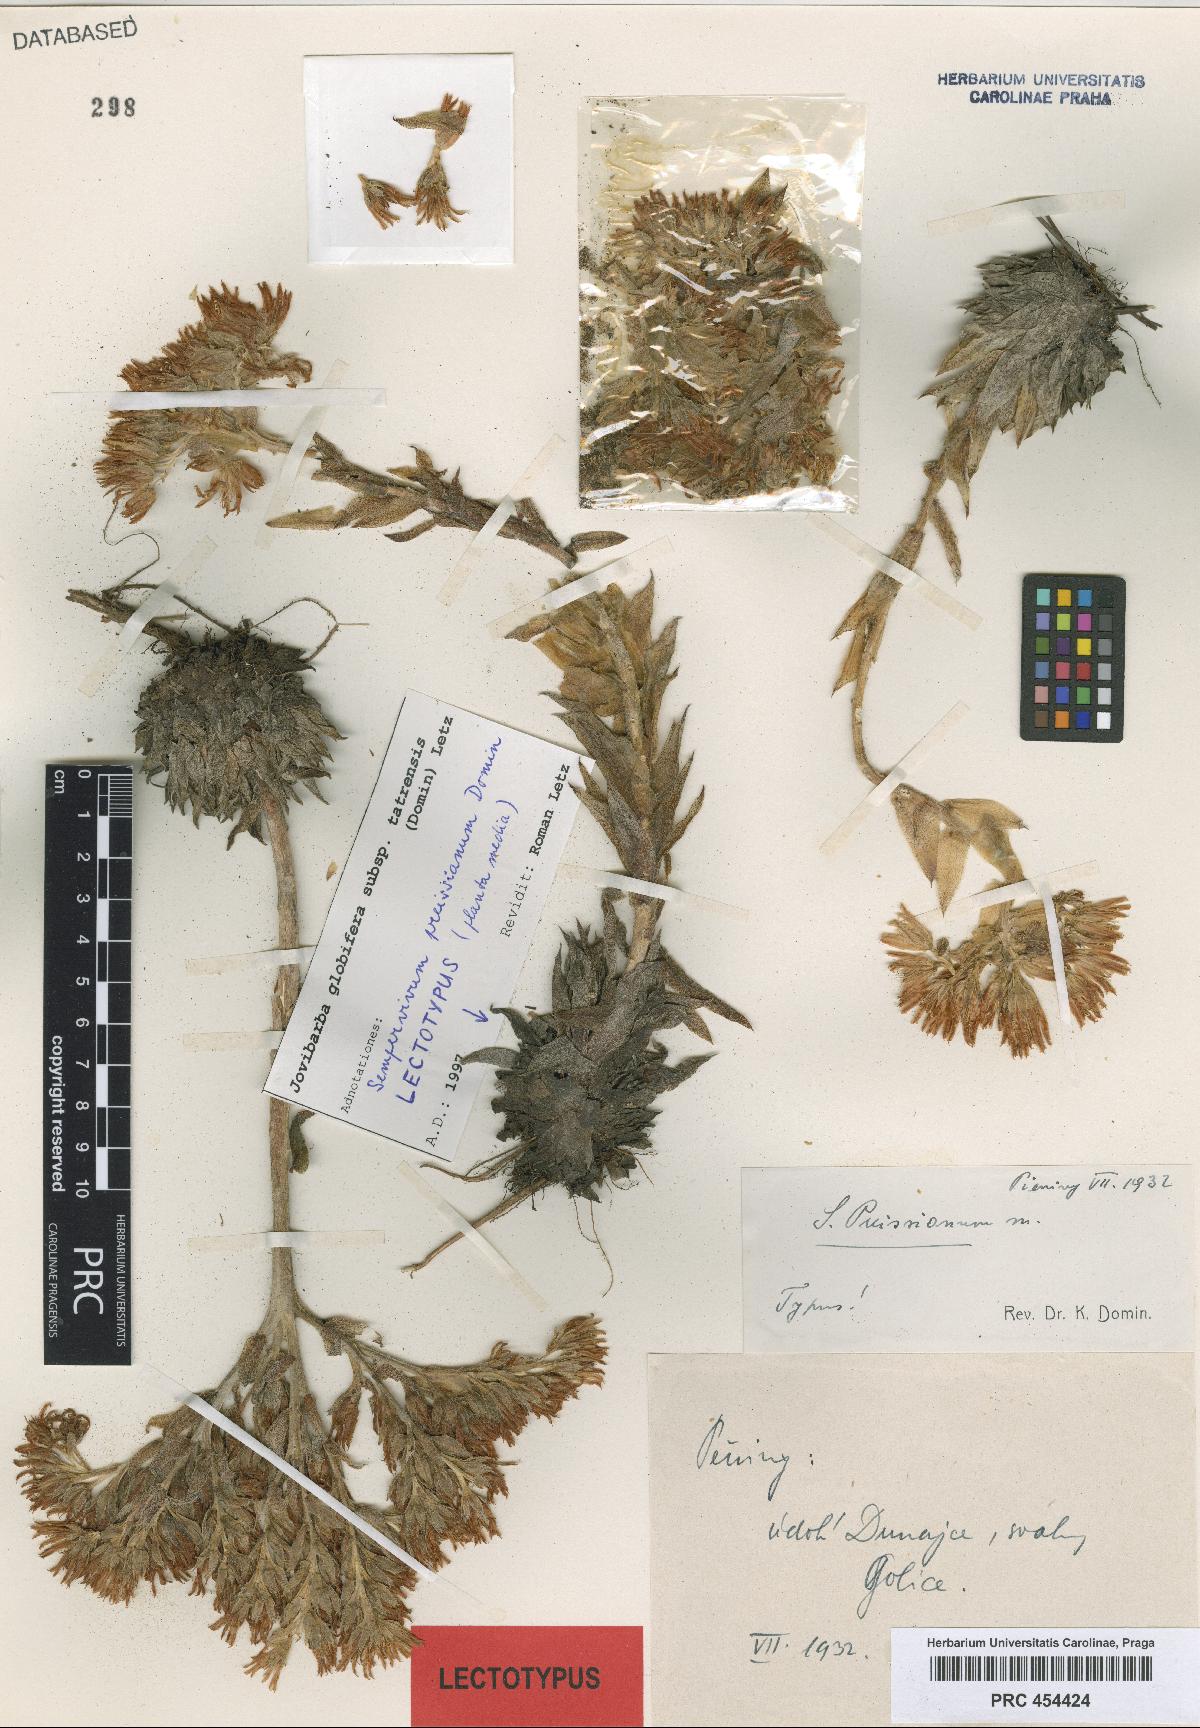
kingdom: Plantae
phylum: Tracheophyta
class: Magnoliopsida
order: Saxifragales
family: Crassulaceae
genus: Sempervivum
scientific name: Sempervivum globiferum
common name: Rolling hen-and-chicks
